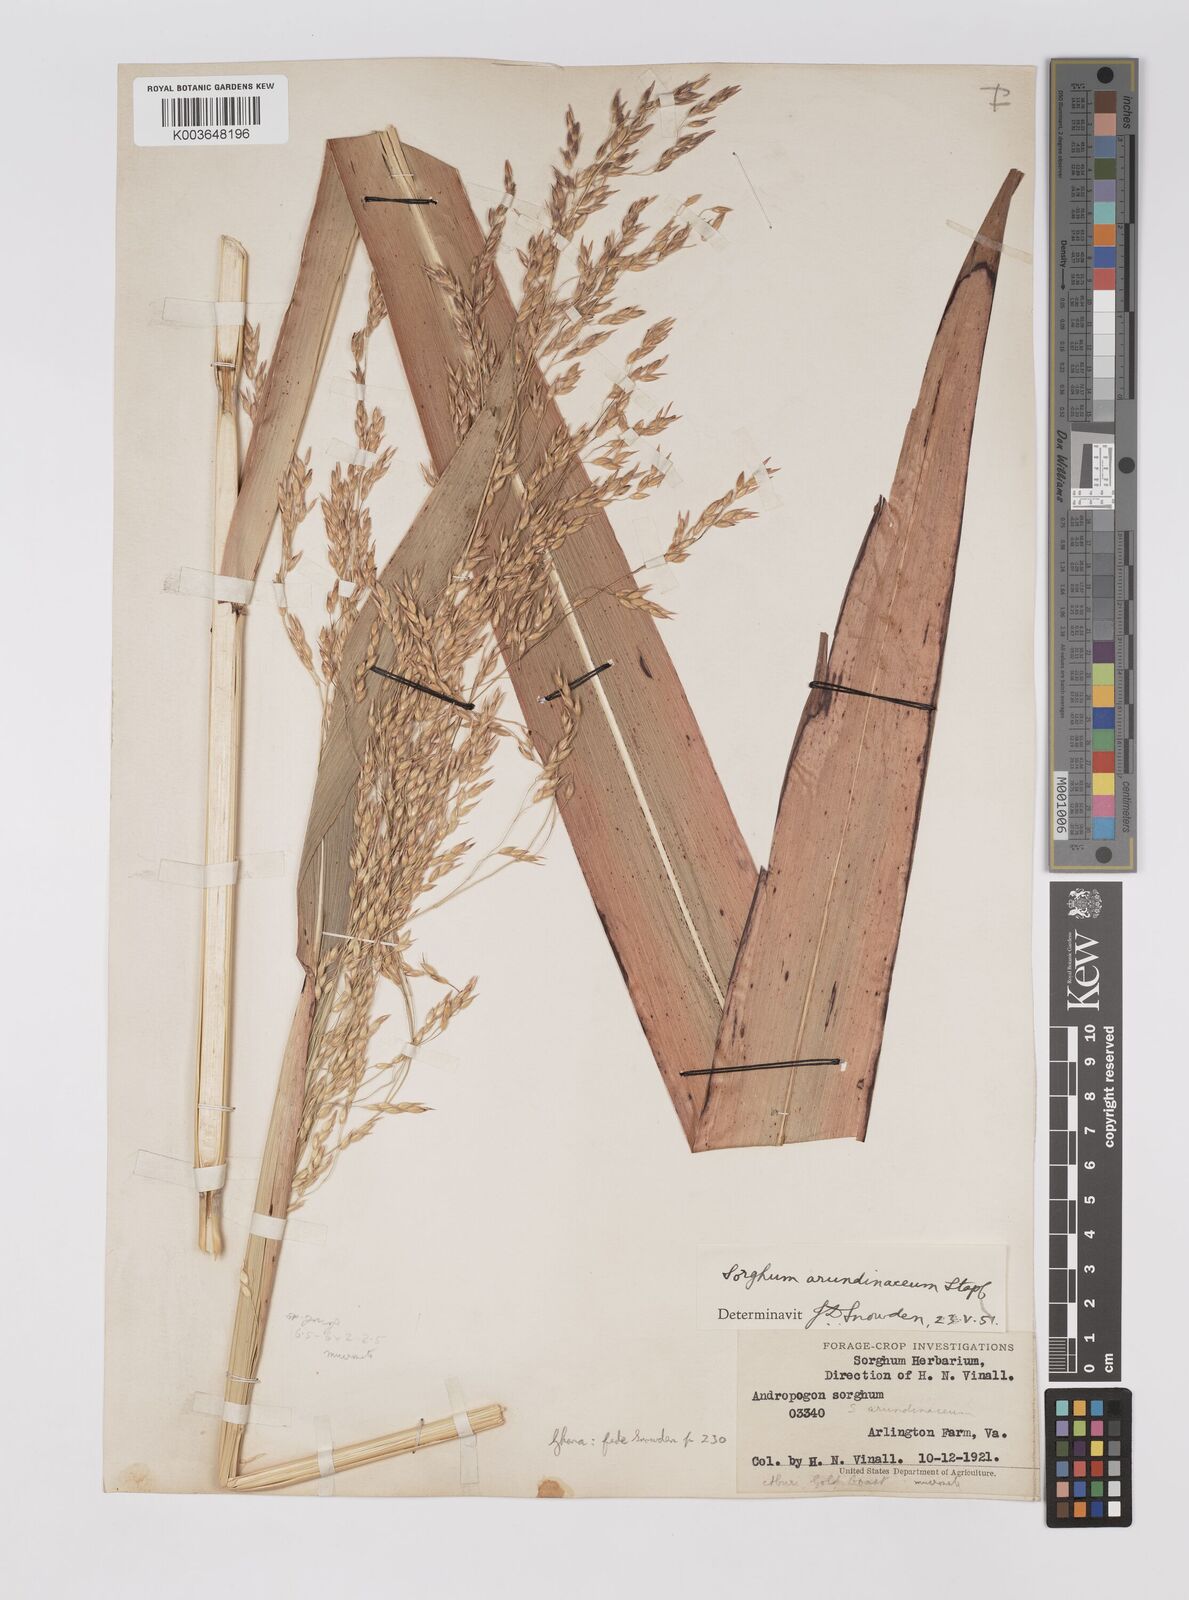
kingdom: Plantae
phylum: Tracheophyta
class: Liliopsida
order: Poales
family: Poaceae
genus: Sorghum
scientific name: Sorghum arundinaceum
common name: Sorghum
